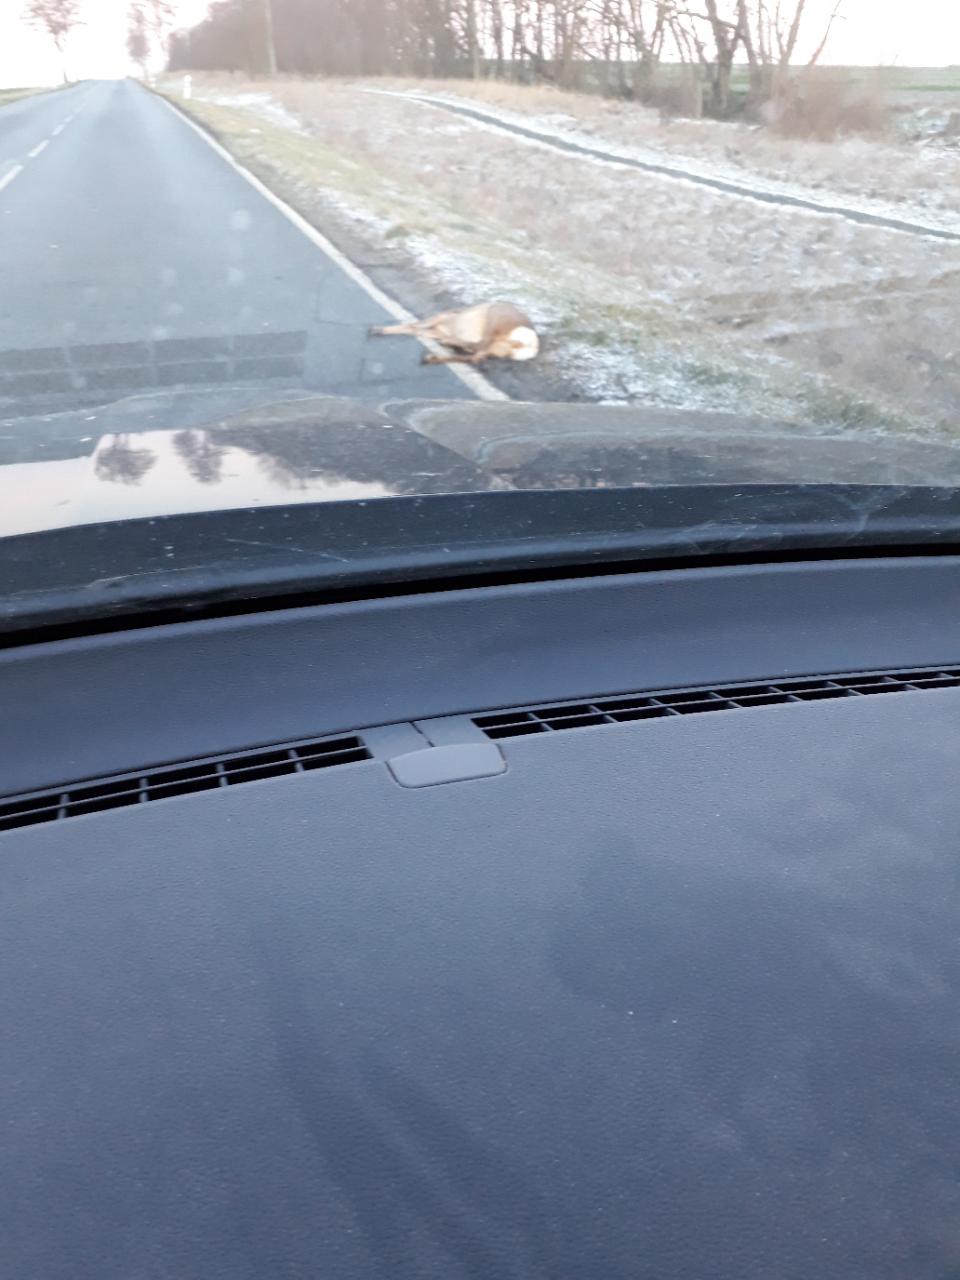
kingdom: Animalia
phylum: Chordata
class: Mammalia
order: Artiodactyla
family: Cervidae
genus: Capreolus
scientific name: Capreolus capreolus
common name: Western roe deer
